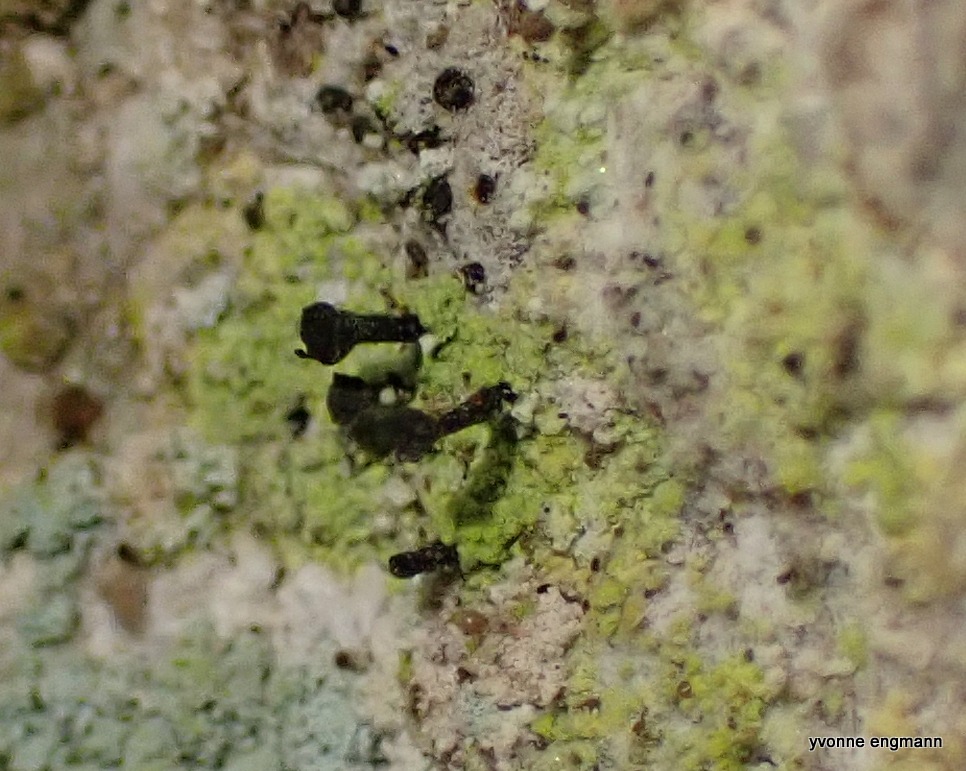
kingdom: Fungi
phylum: Ascomycota
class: Lecanoromycetes
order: Caliciales
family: Caliciaceae
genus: Calicium
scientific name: Calicium viride
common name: Gulgrøn nålelav
